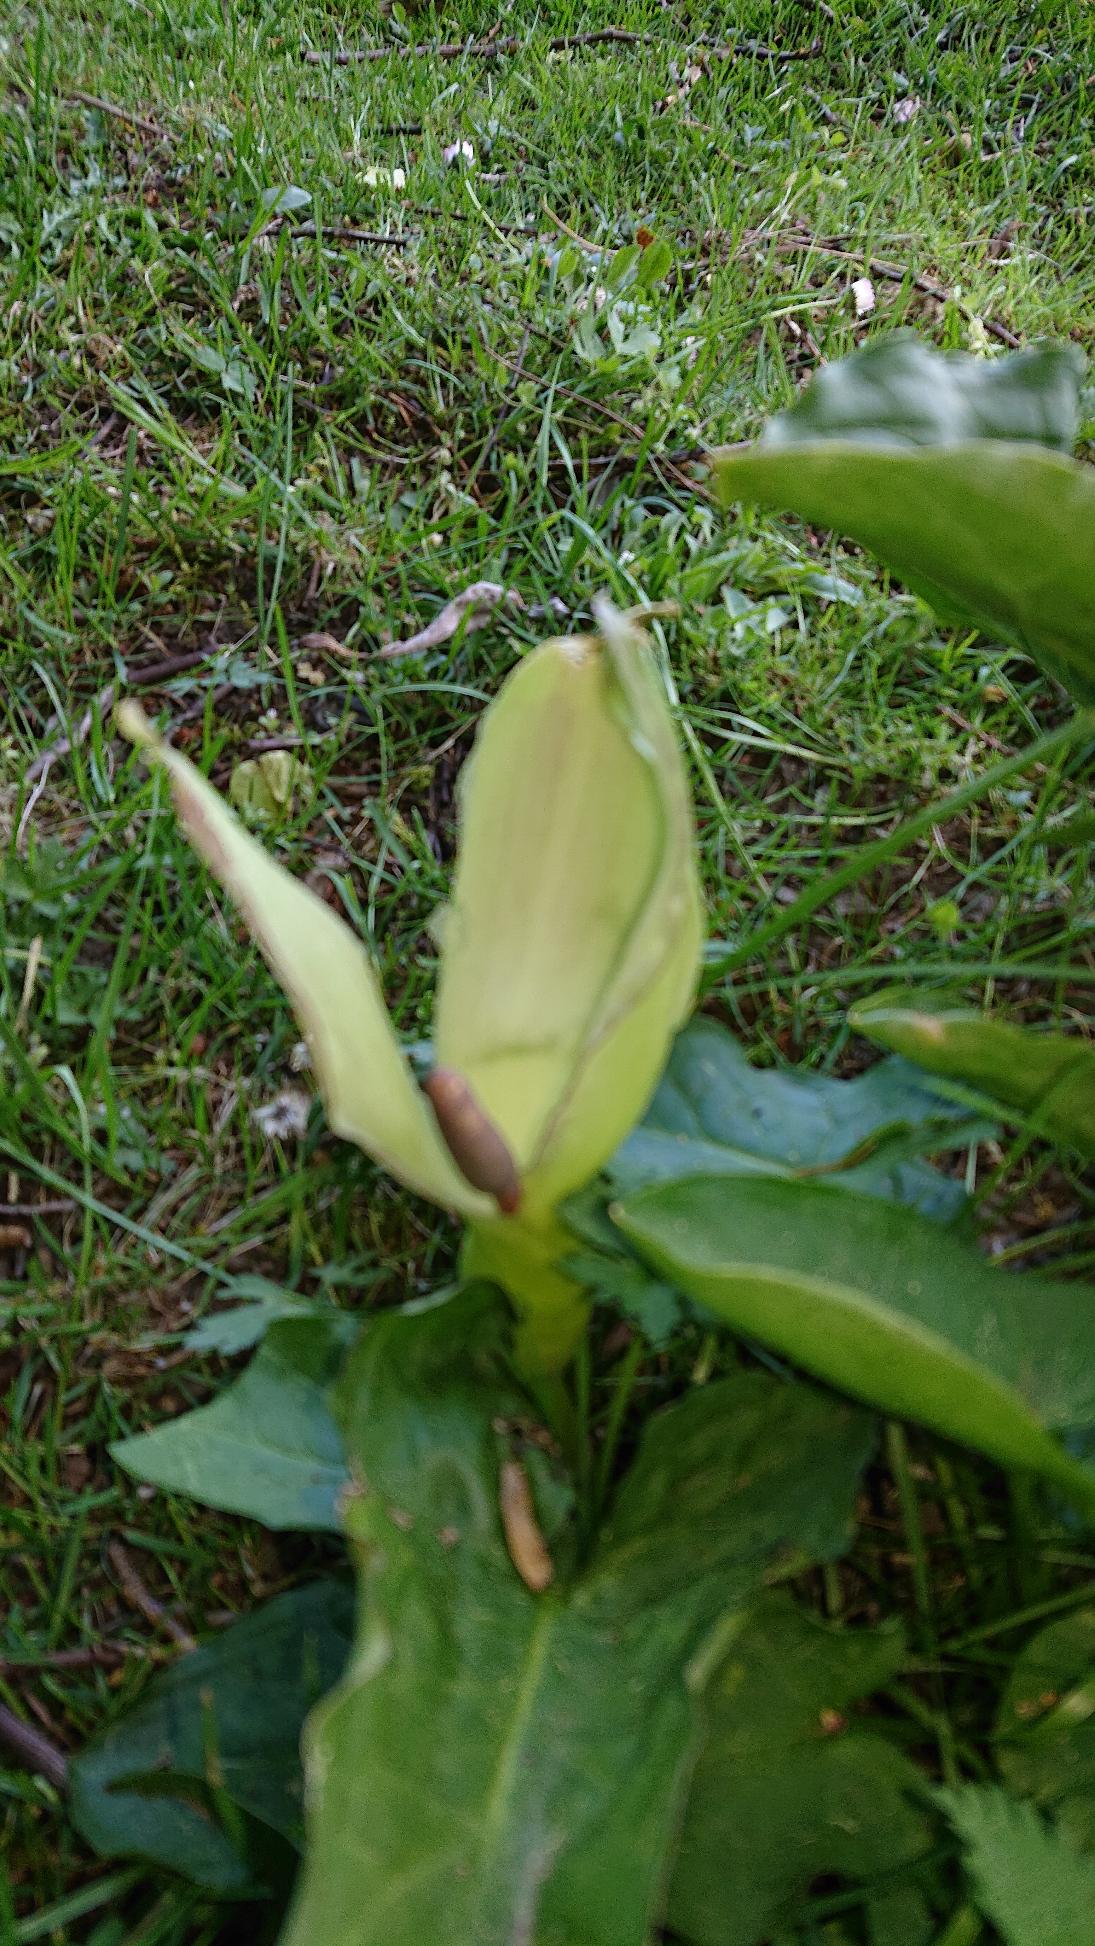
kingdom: Plantae
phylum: Tracheophyta
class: Liliopsida
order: Alismatales
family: Araceae
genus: Arum
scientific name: Arum maculatum
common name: Plettet arum
